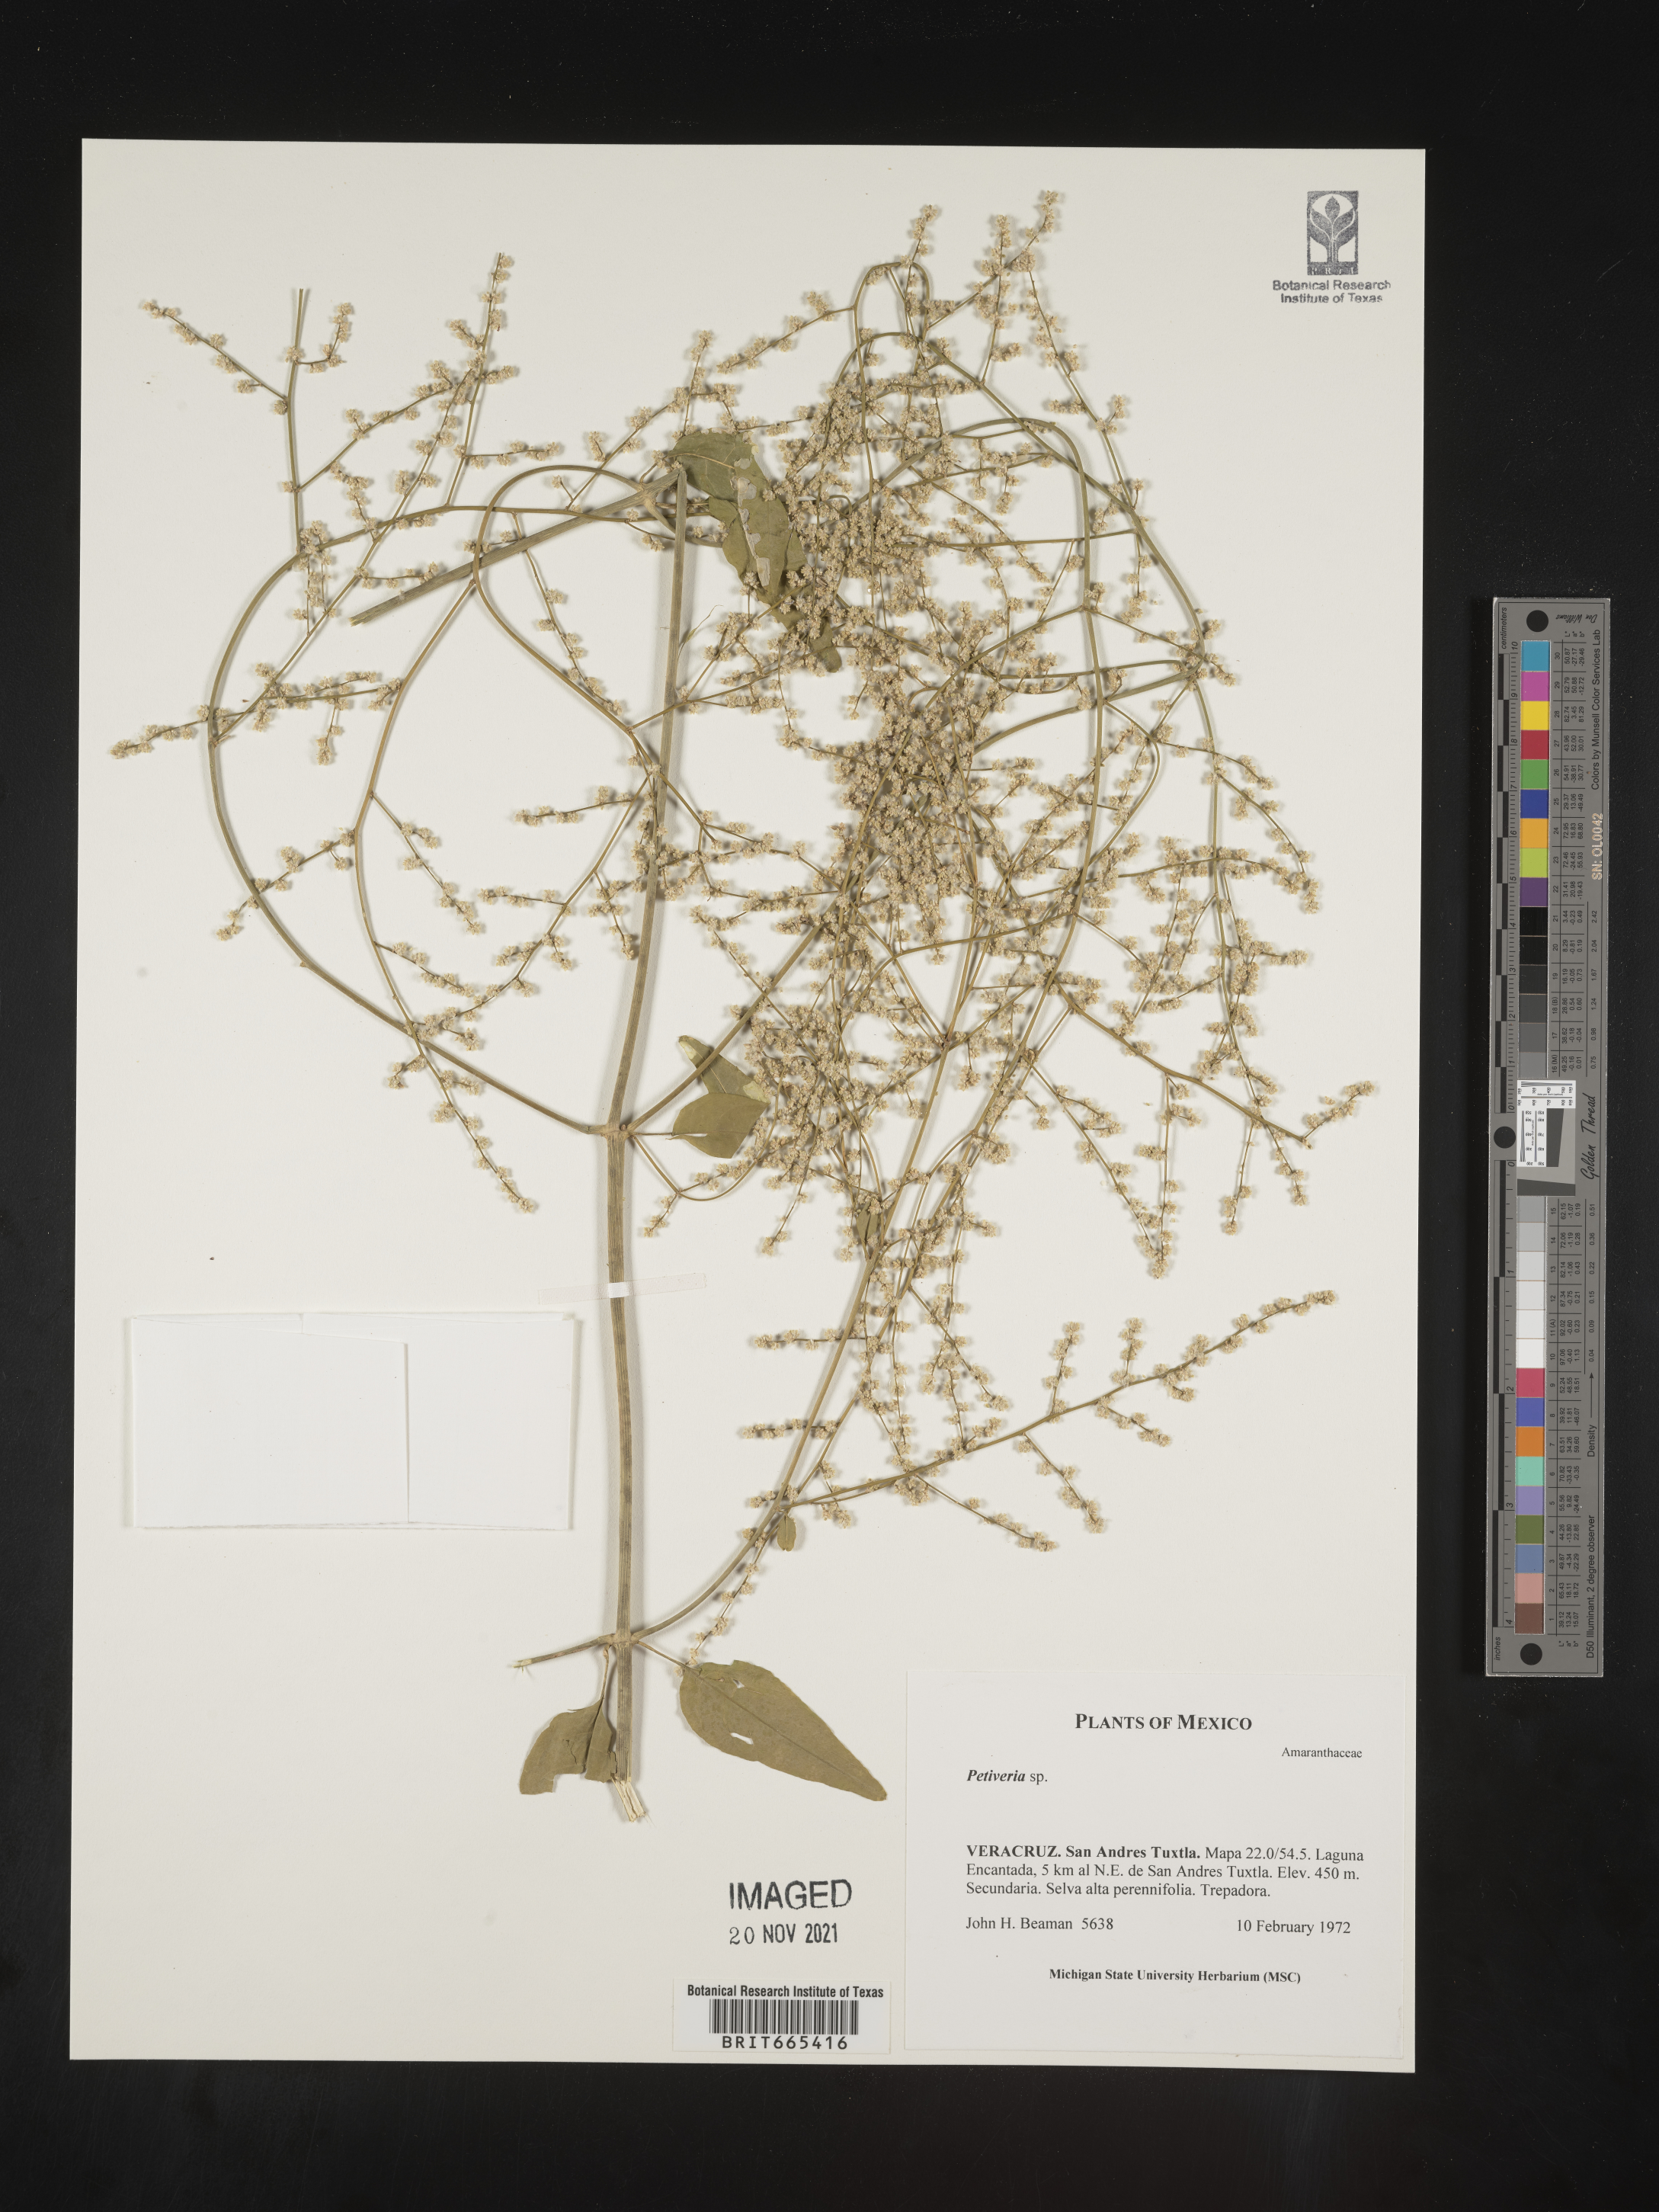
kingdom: Plantae
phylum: Tracheophyta
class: Magnoliopsida
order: Caryophyllales
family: Phytolaccaceae
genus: Petiveria
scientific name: Petiveria
